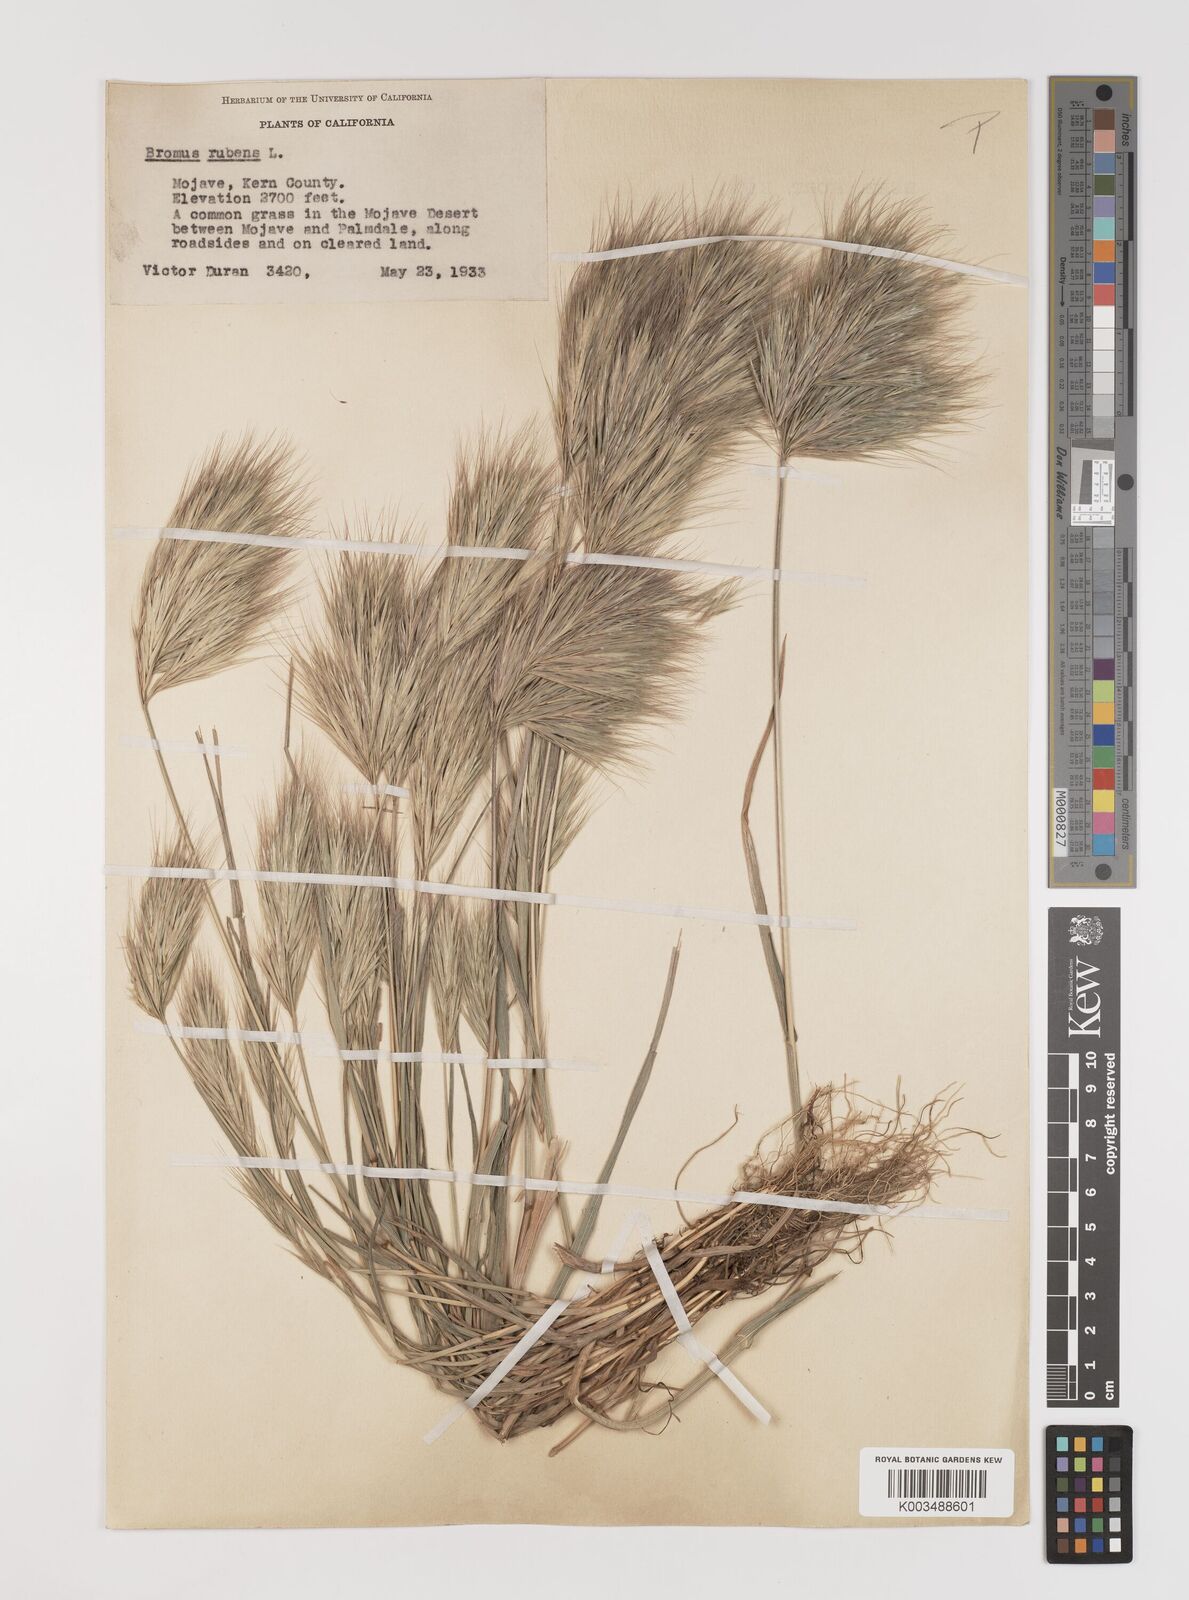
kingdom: Plantae
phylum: Tracheophyta
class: Liliopsida
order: Poales
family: Poaceae
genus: Bromus
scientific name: Bromus rubens
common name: Red brome
